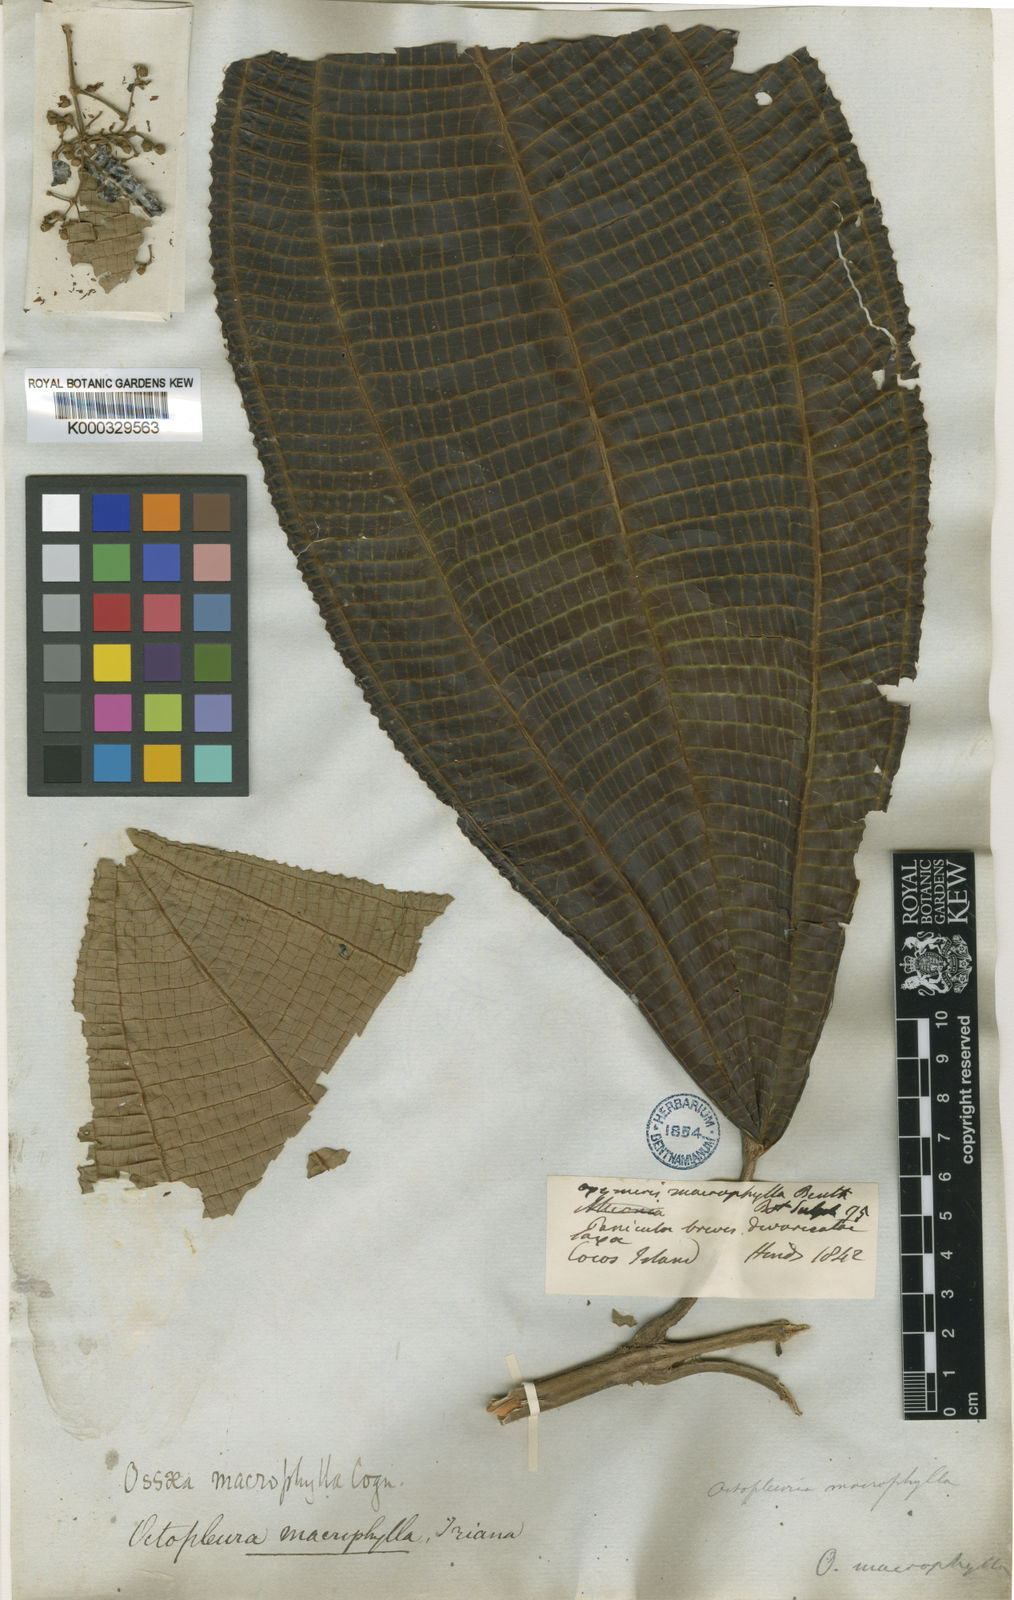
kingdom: Plantae
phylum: Tracheophyta
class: Magnoliopsida
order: Myrtales
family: Melastomataceae
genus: Miconia
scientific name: Miconia magnifolia
